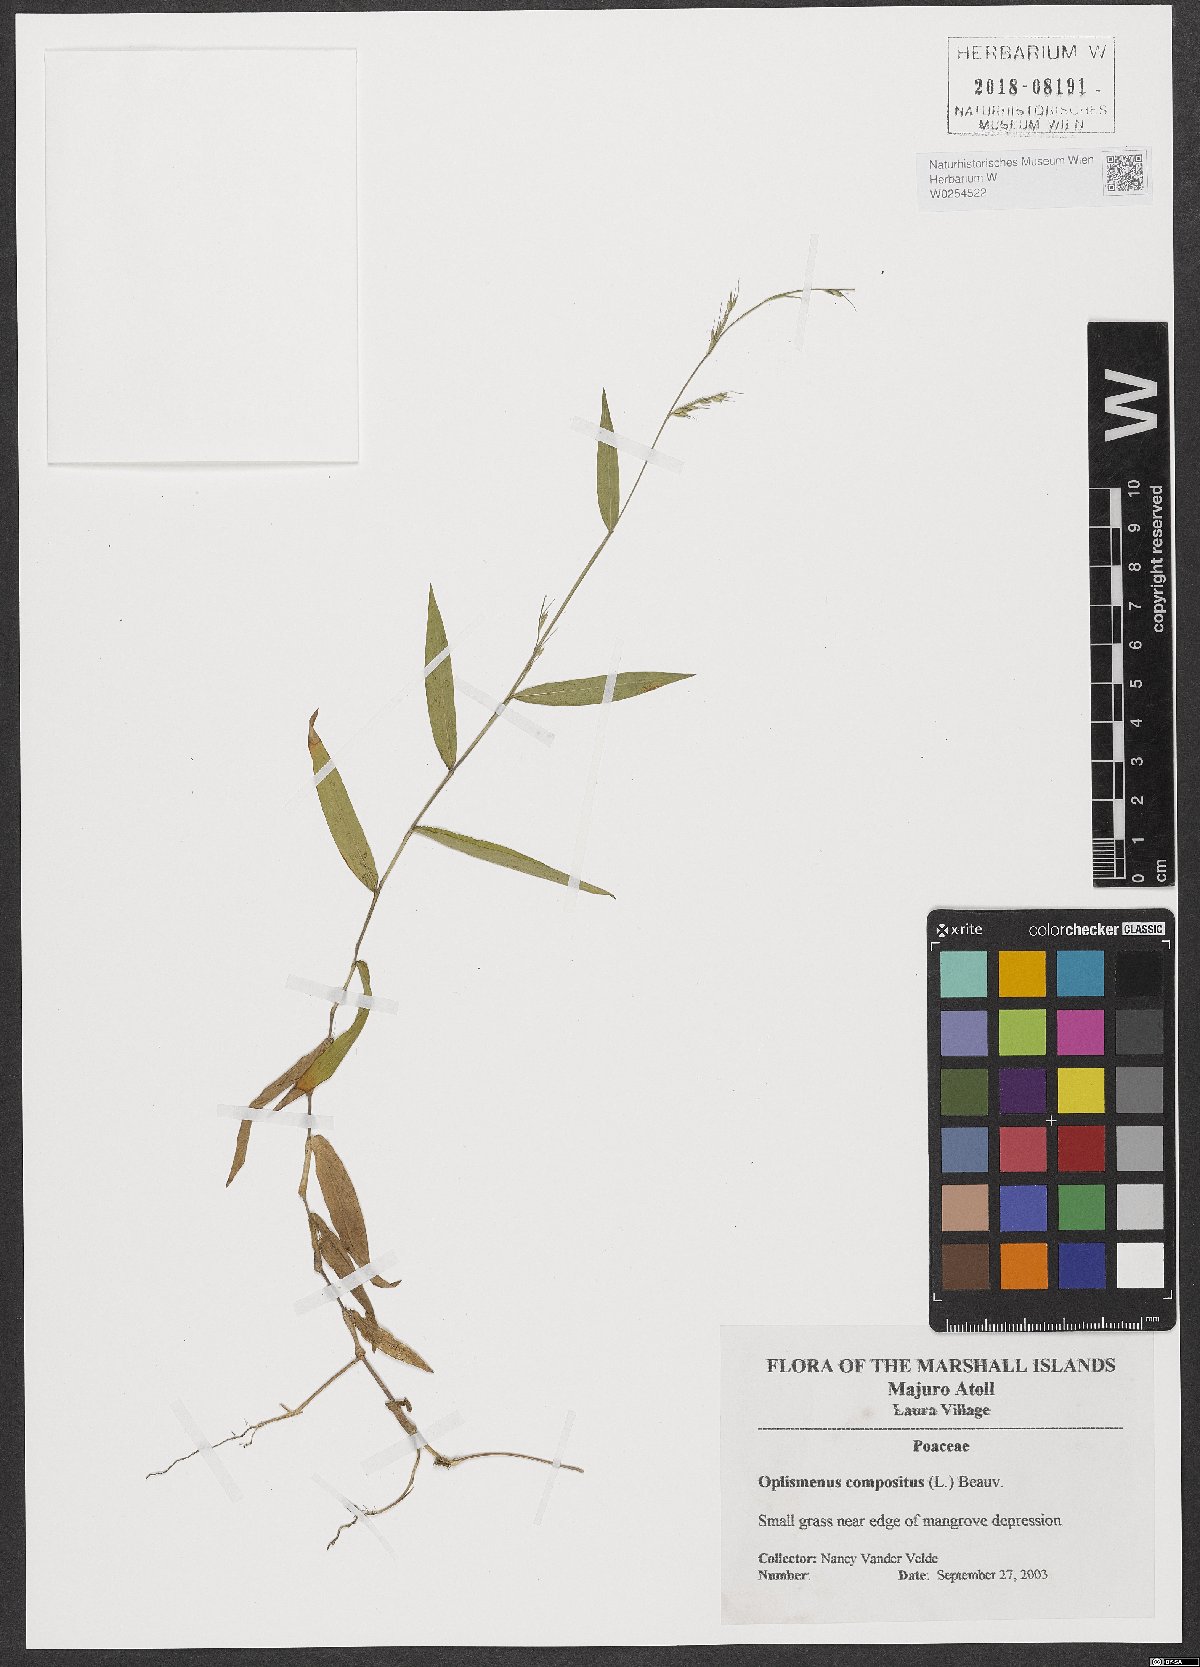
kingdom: Plantae
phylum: Tracheophyta
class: Liliopsida
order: Poales
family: Poaceae
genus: Oplismenus
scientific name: Oplismenus compositus
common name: Running mountain grass
